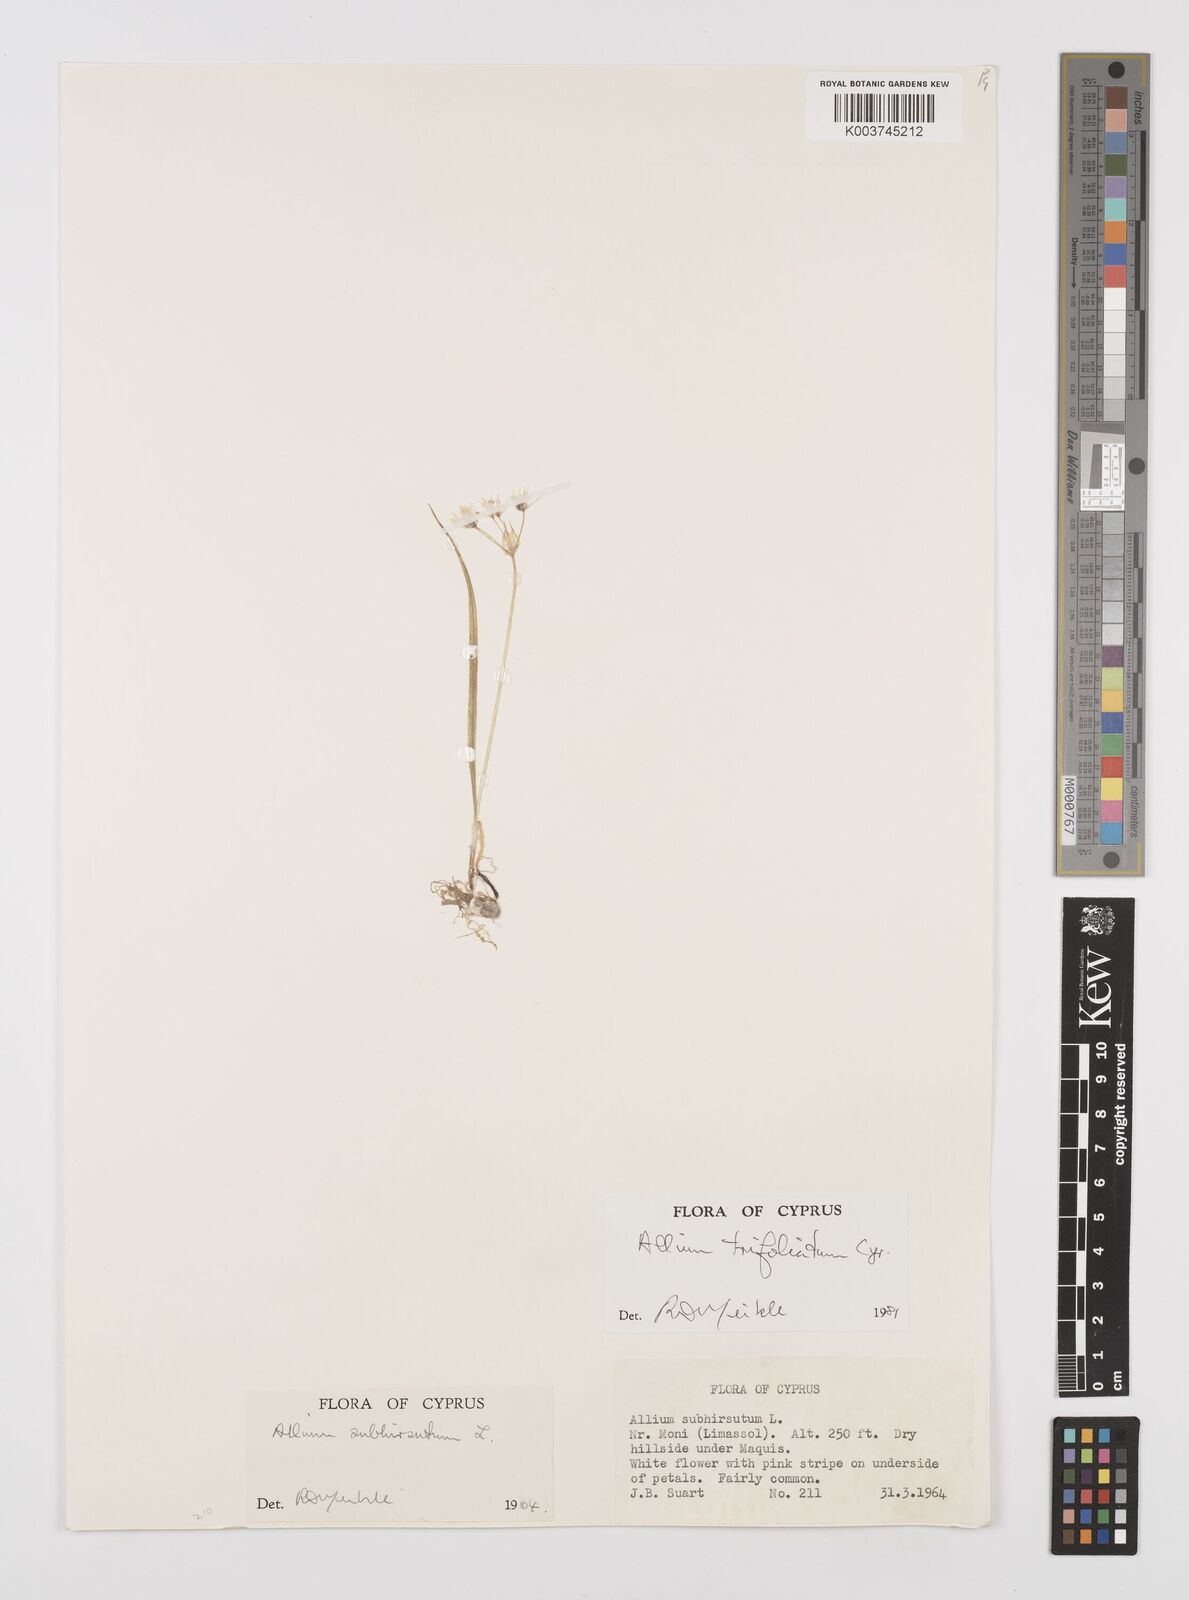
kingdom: Plantae
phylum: Tracheophyta
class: Liliopsida
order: Asparagales
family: Amaryllidaceae
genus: Allium
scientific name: Allium trifoliatum
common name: Pink garlic
